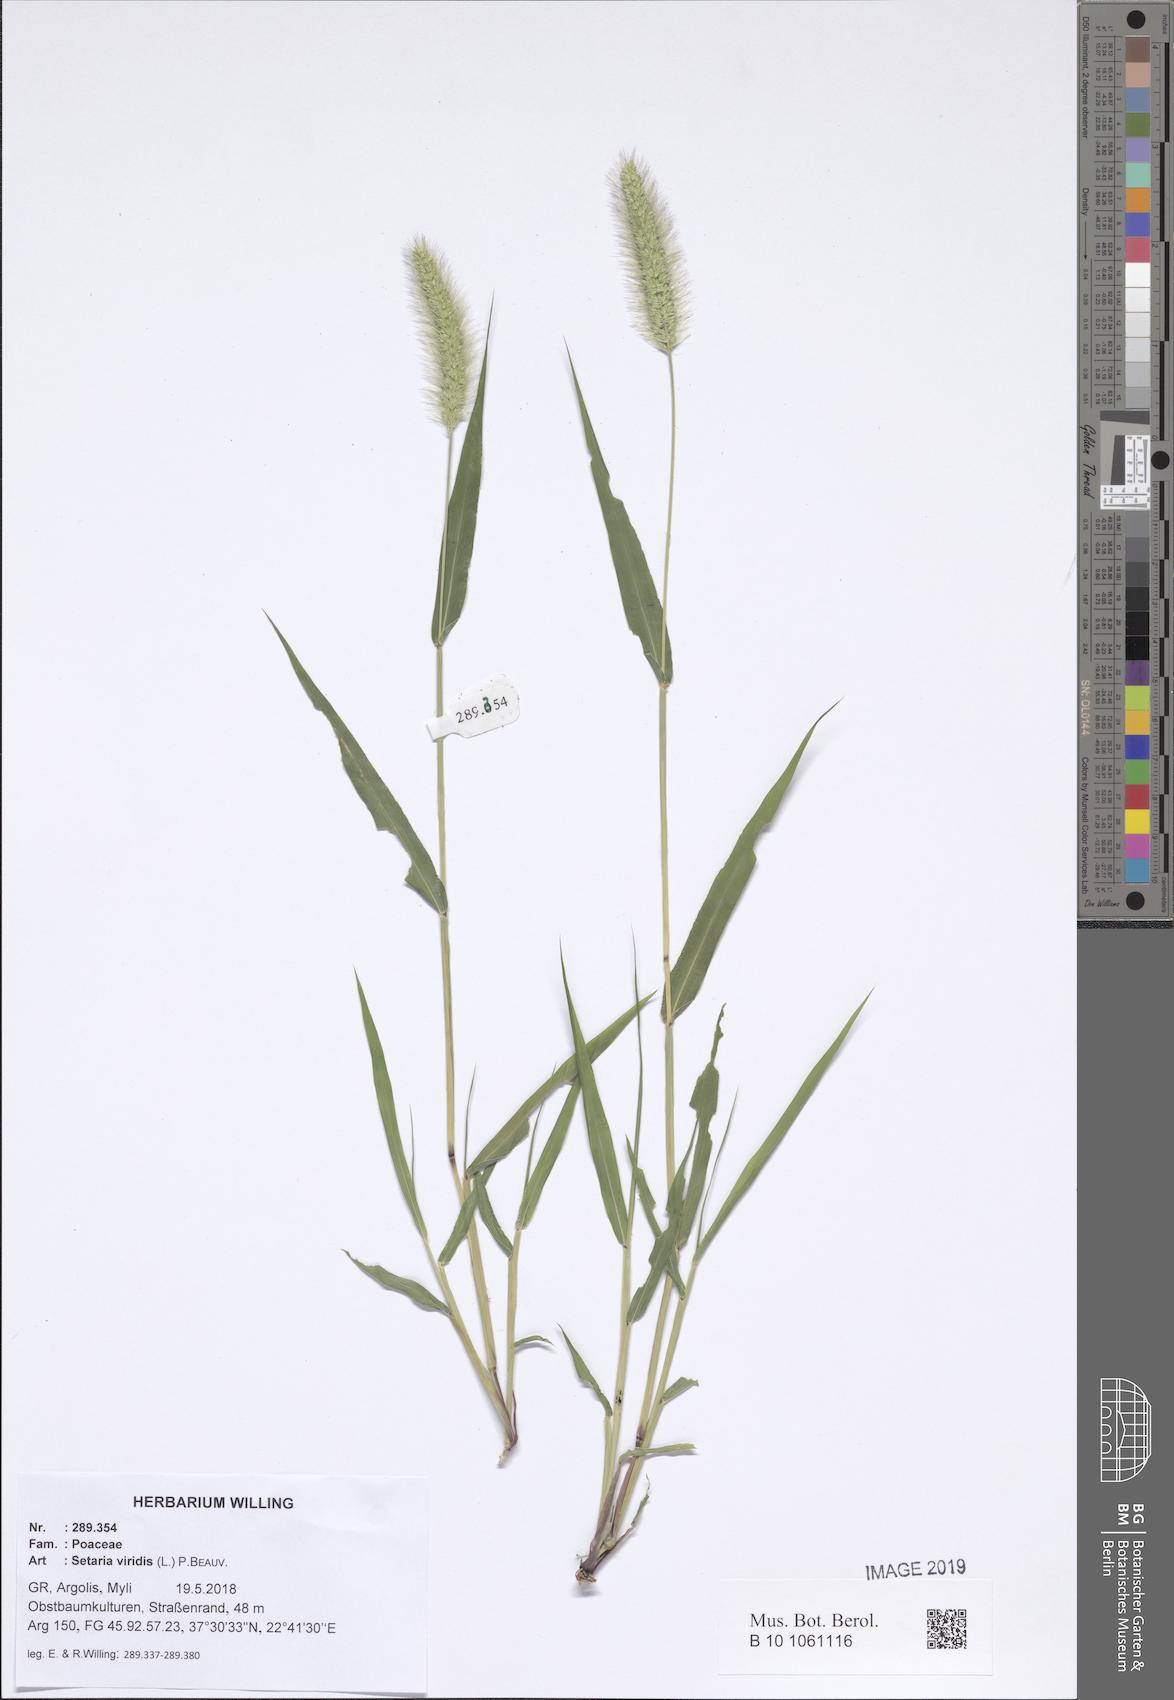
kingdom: Plantae
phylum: Tracheophyta
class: Liliopsida
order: Poales
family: Poaceae
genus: Setaria
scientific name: Setaria viridis
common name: Green bristlegrass
